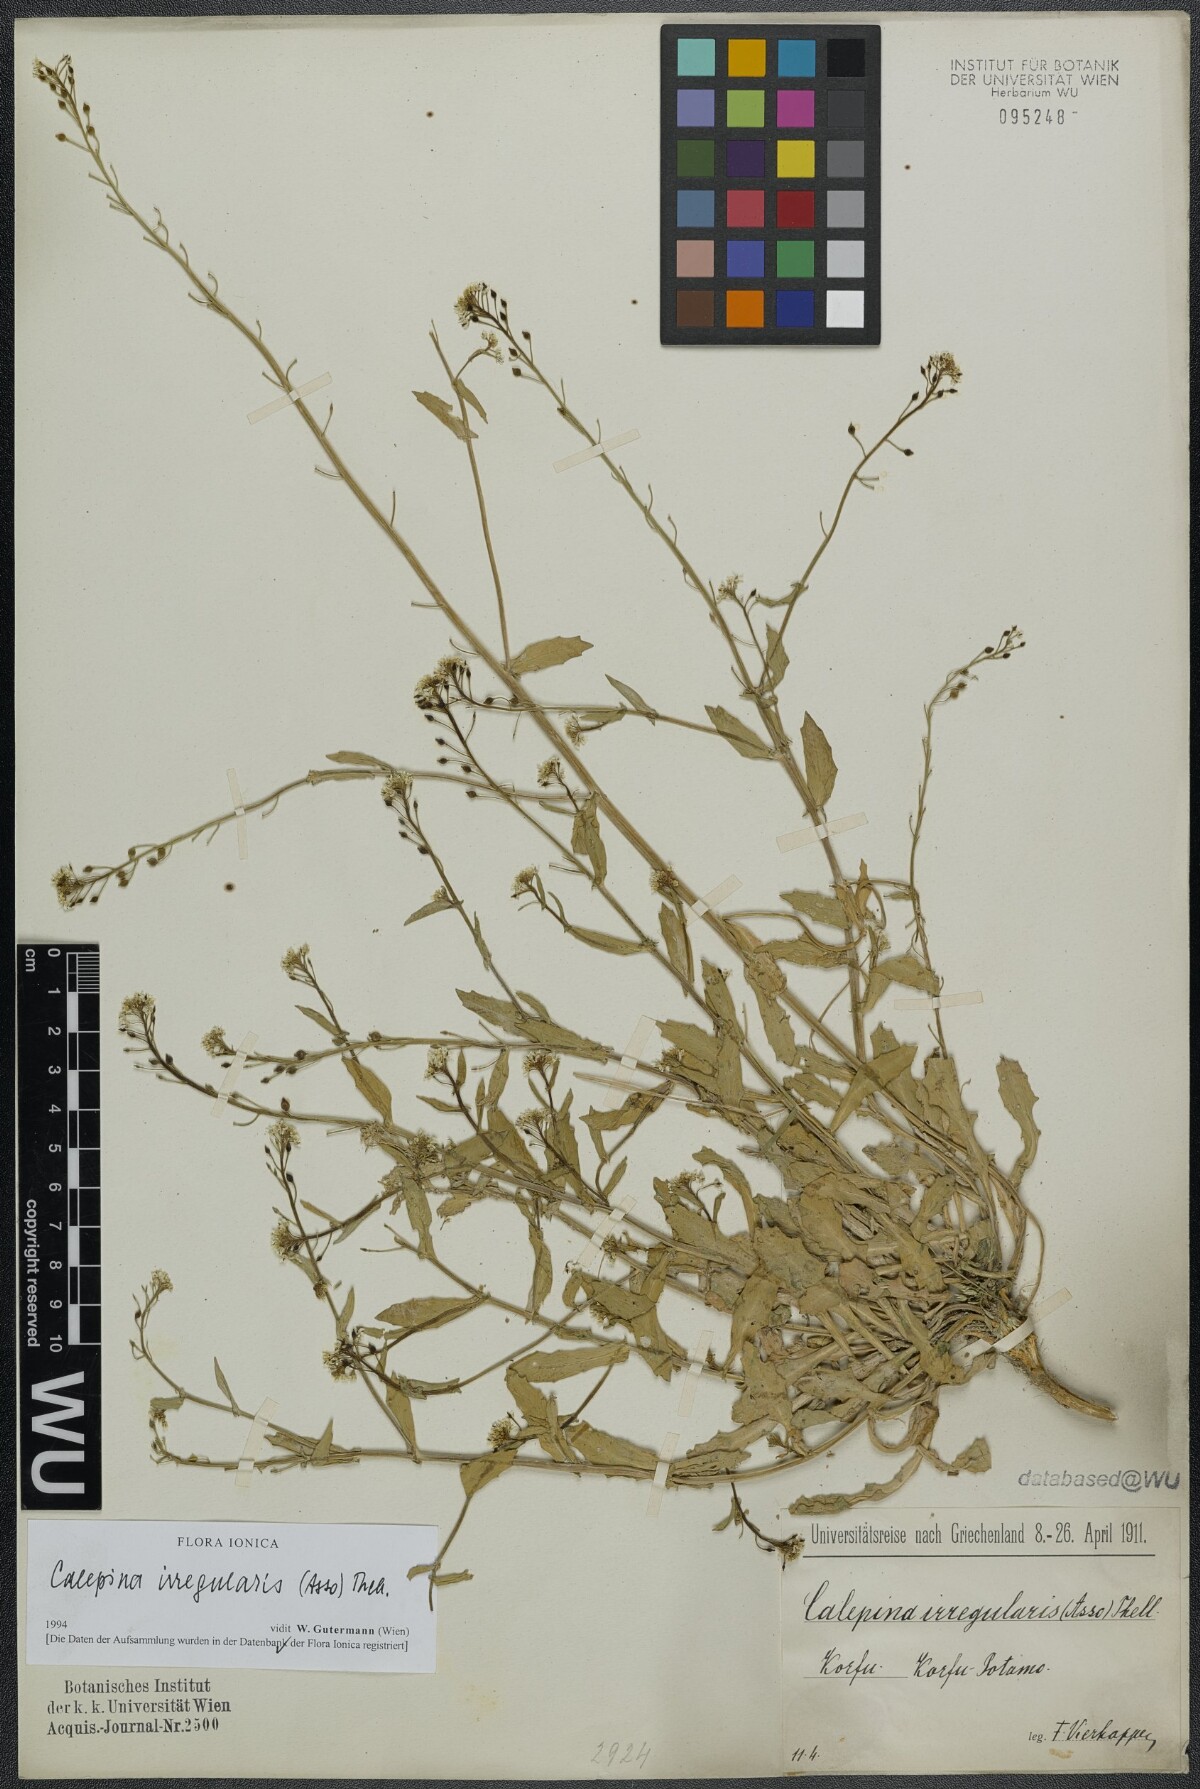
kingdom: Plantae
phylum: Tracheophyta
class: Magnoliopsida
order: Brassicales
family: Brassicaceae
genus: Calepina
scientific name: Calepina irregularis
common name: White ballmustard
